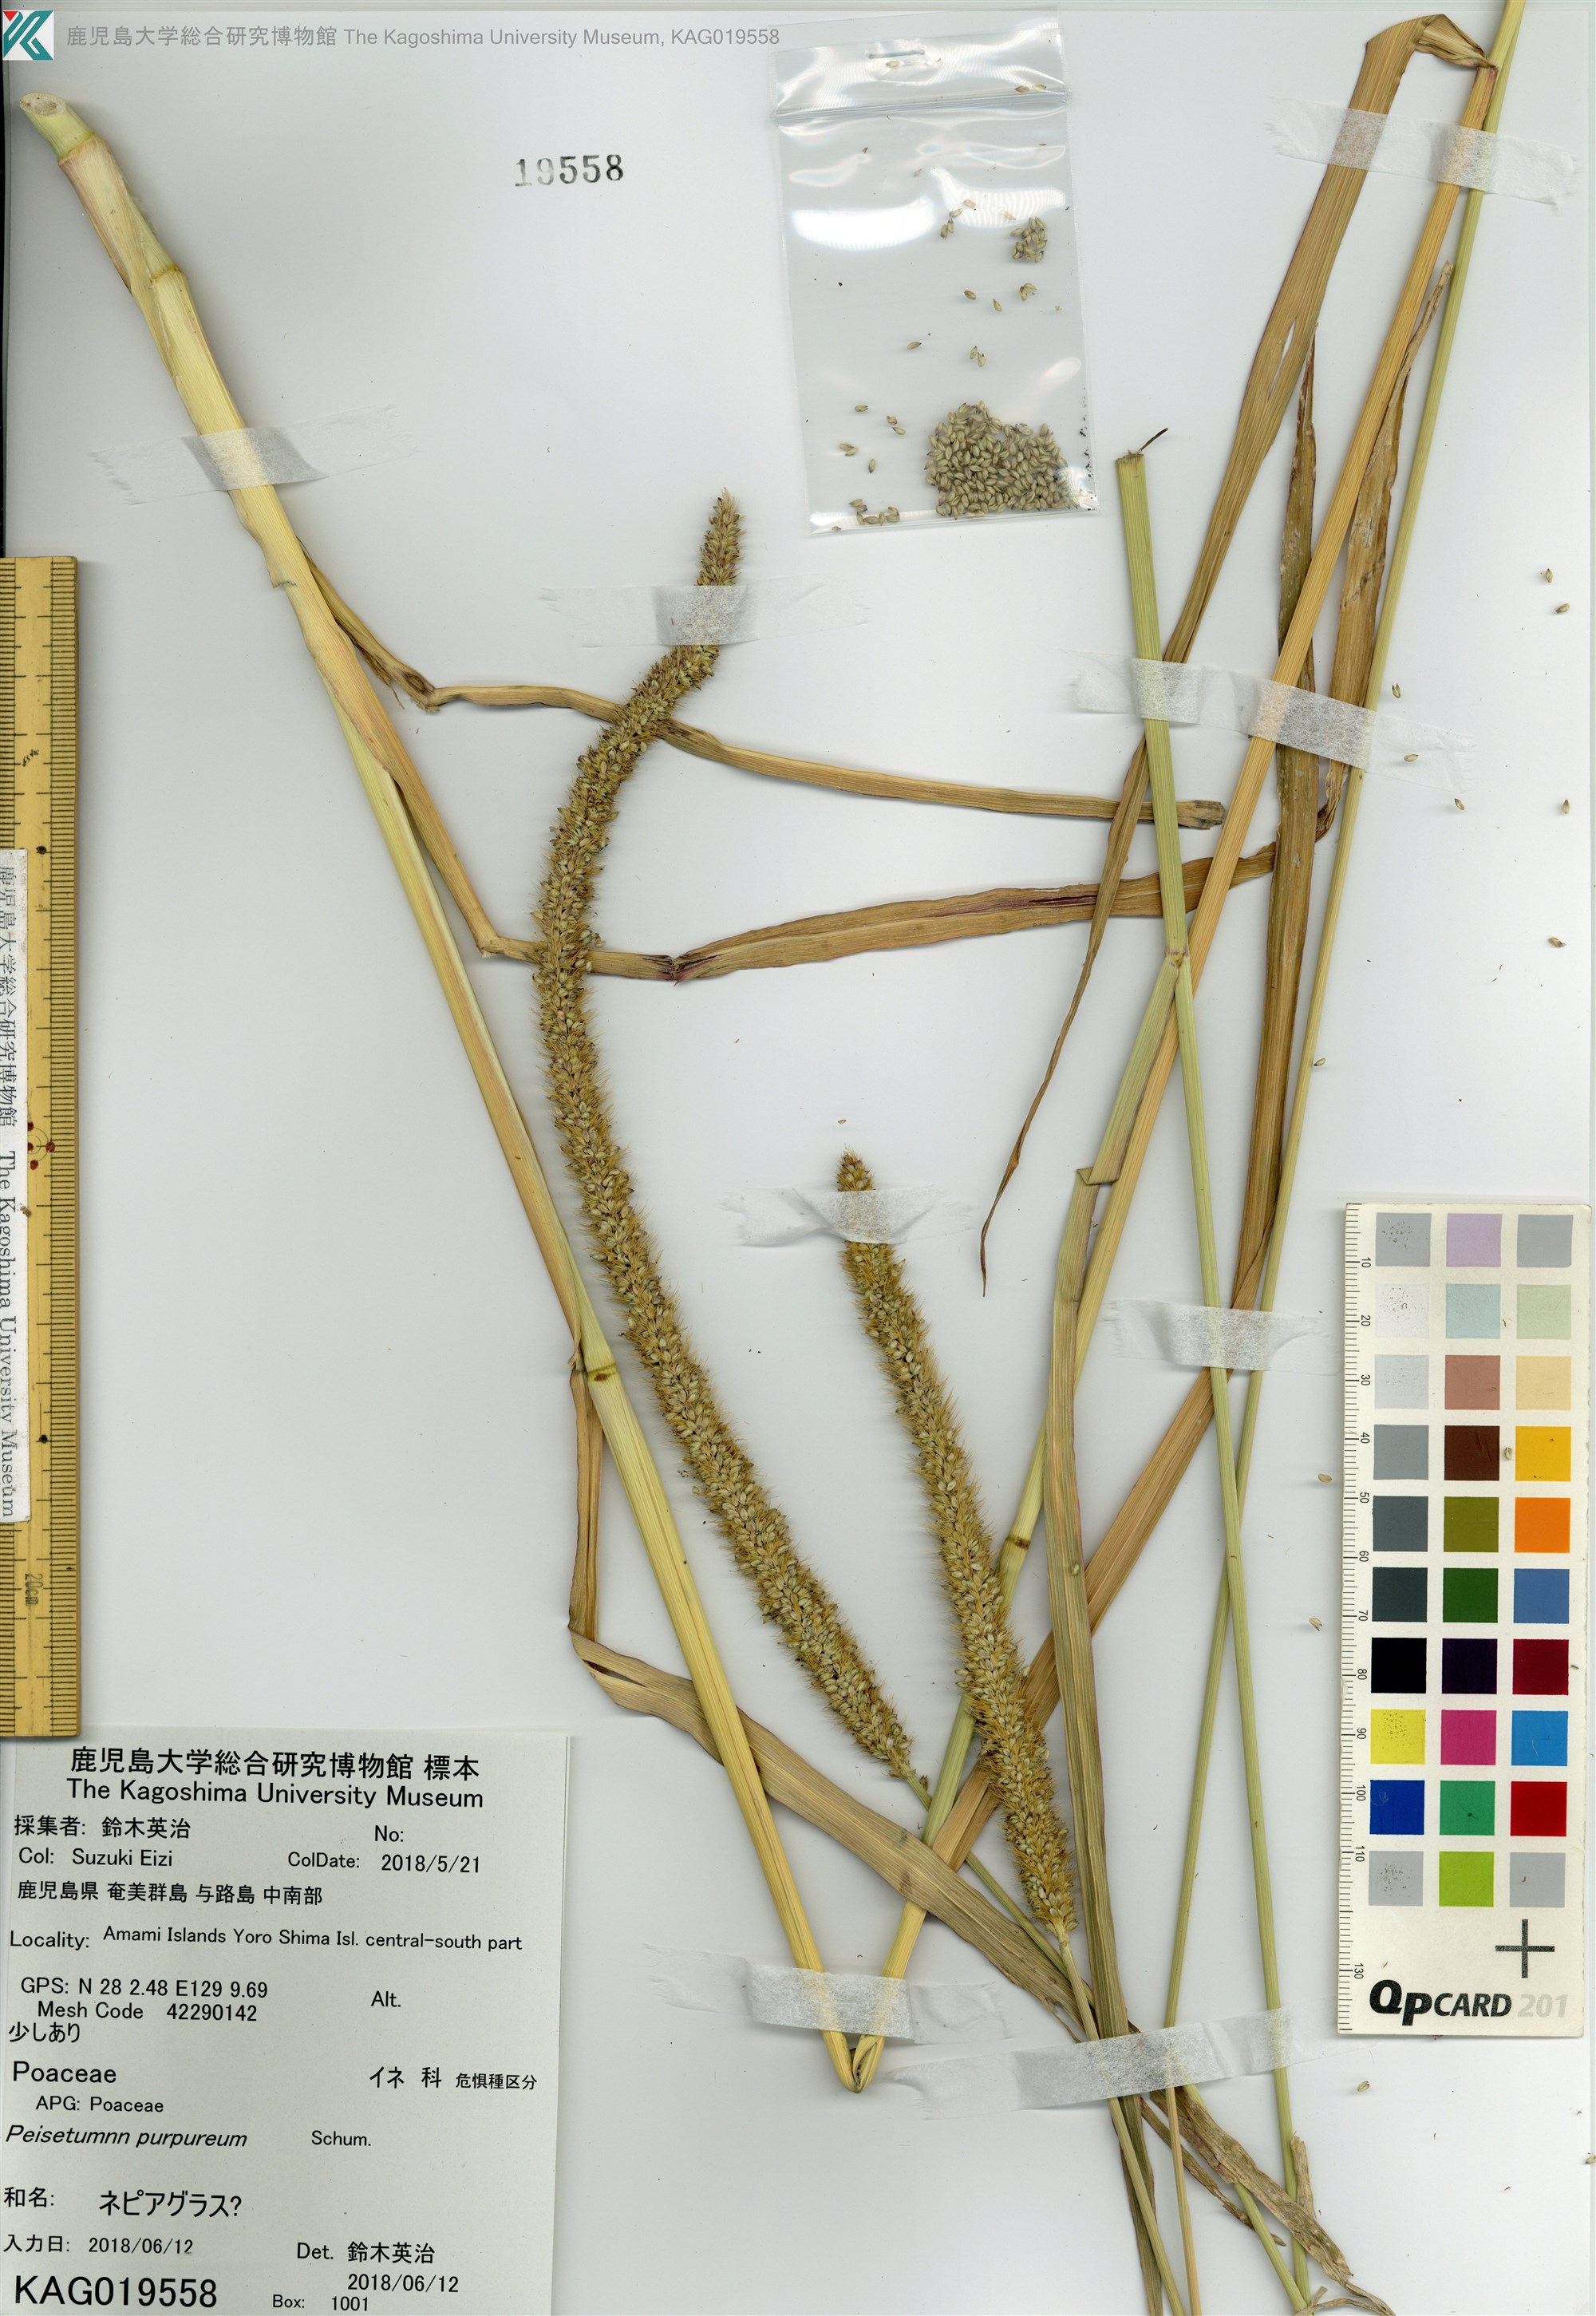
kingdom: Plantae
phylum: Tracheophyta
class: Liliopsida
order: Poales
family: Poaceae
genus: Cenchrus
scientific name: Cenchrus purpureus
